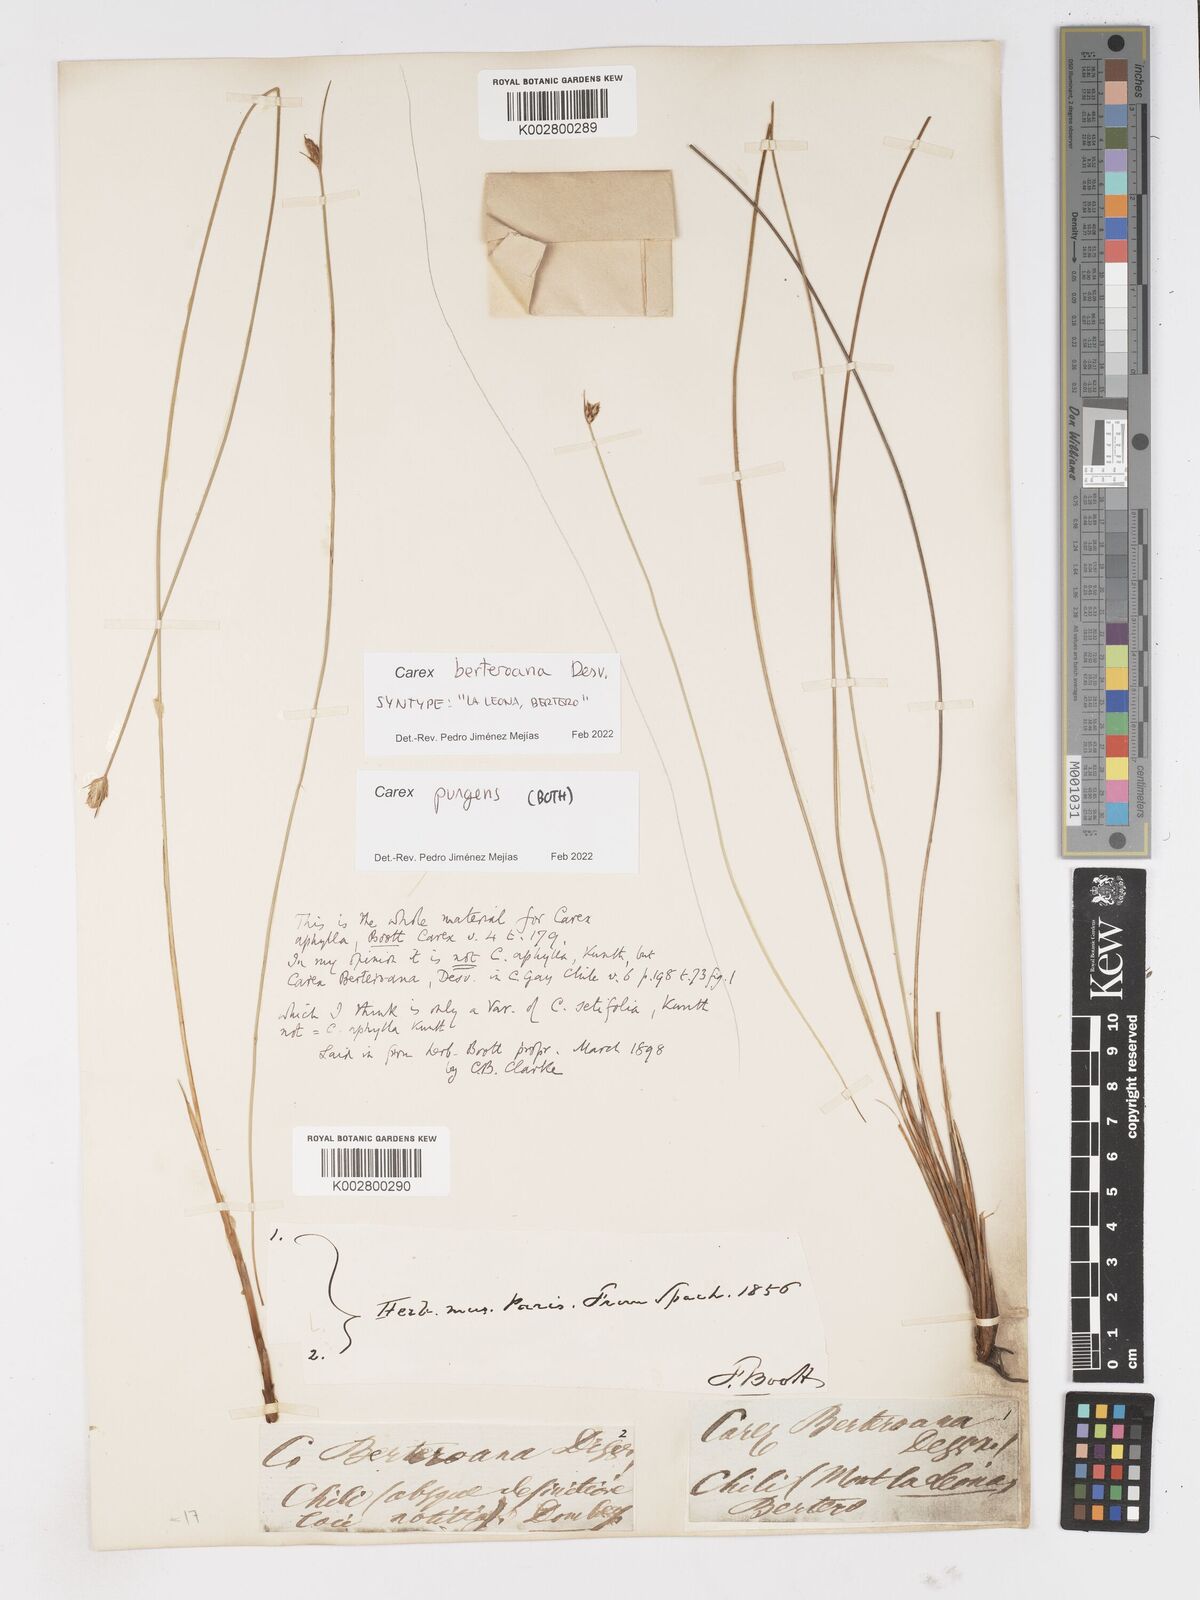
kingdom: Plantae
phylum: Tracheophyta
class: Liliopsida
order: Poales
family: Cyperaceae
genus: Carex
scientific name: Carex setifolia
